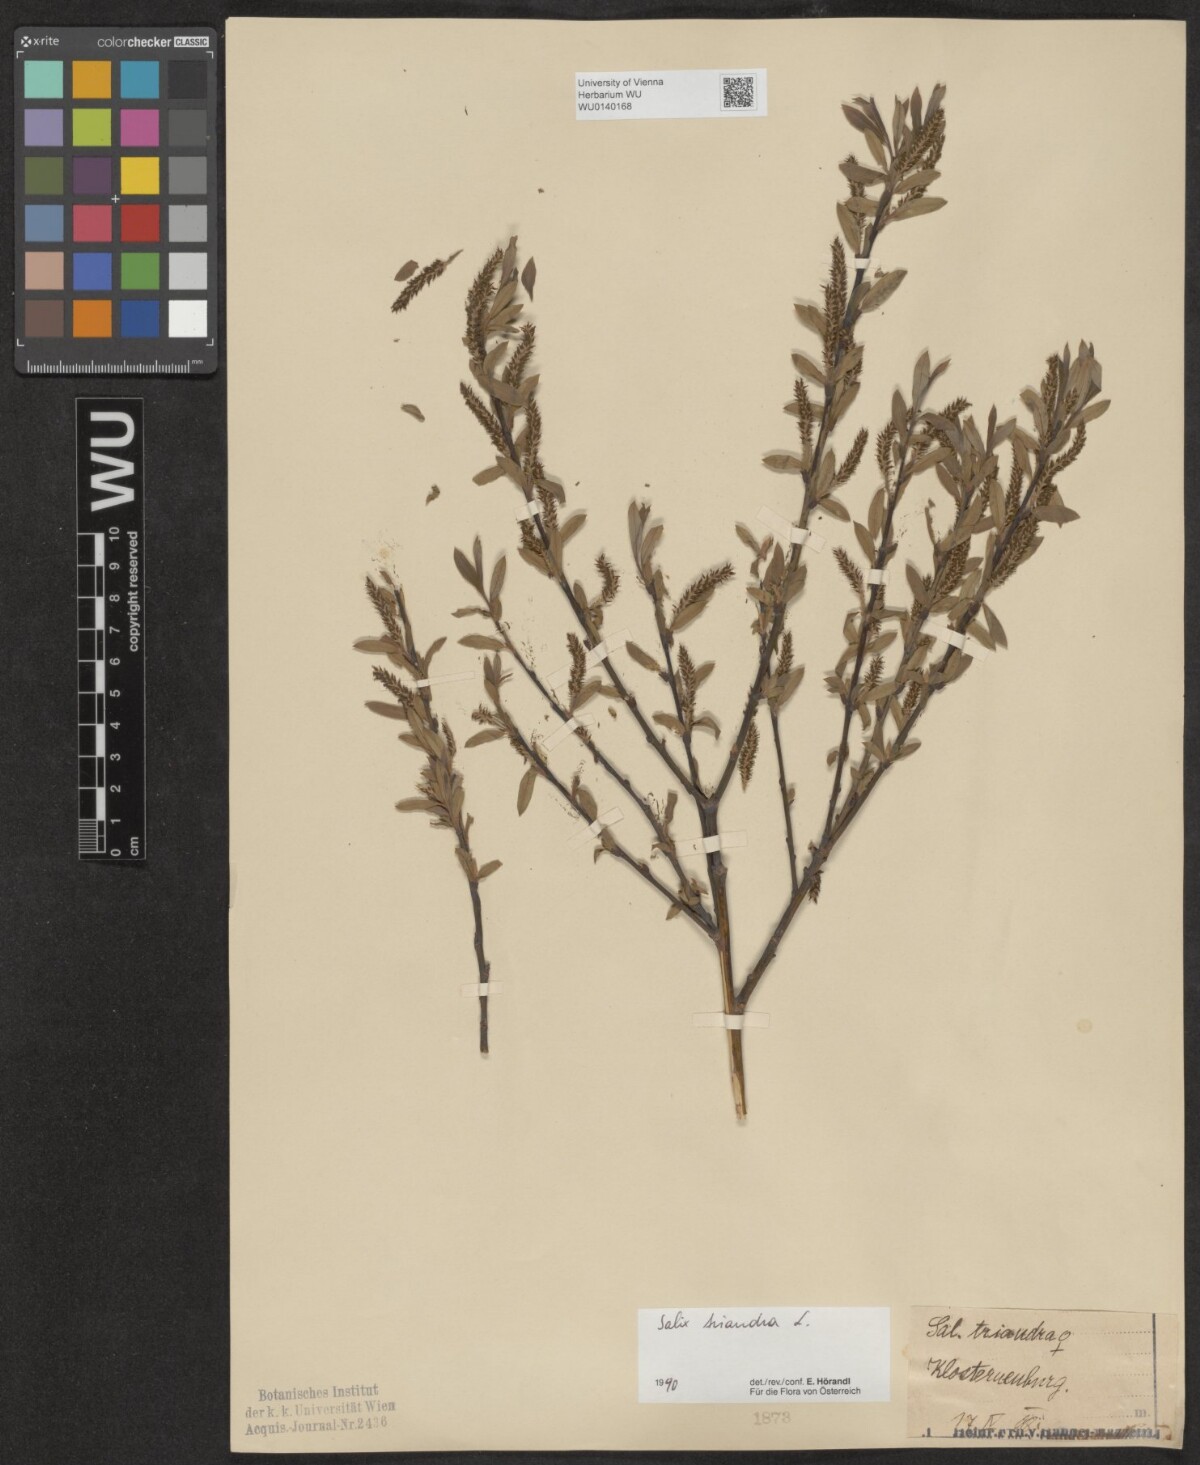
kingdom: Plantae
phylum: Tracheophyta
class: Magnoliopsida
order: Malpighiales
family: Salicaceae
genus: Salix
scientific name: Salix triandra
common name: Almond willow
